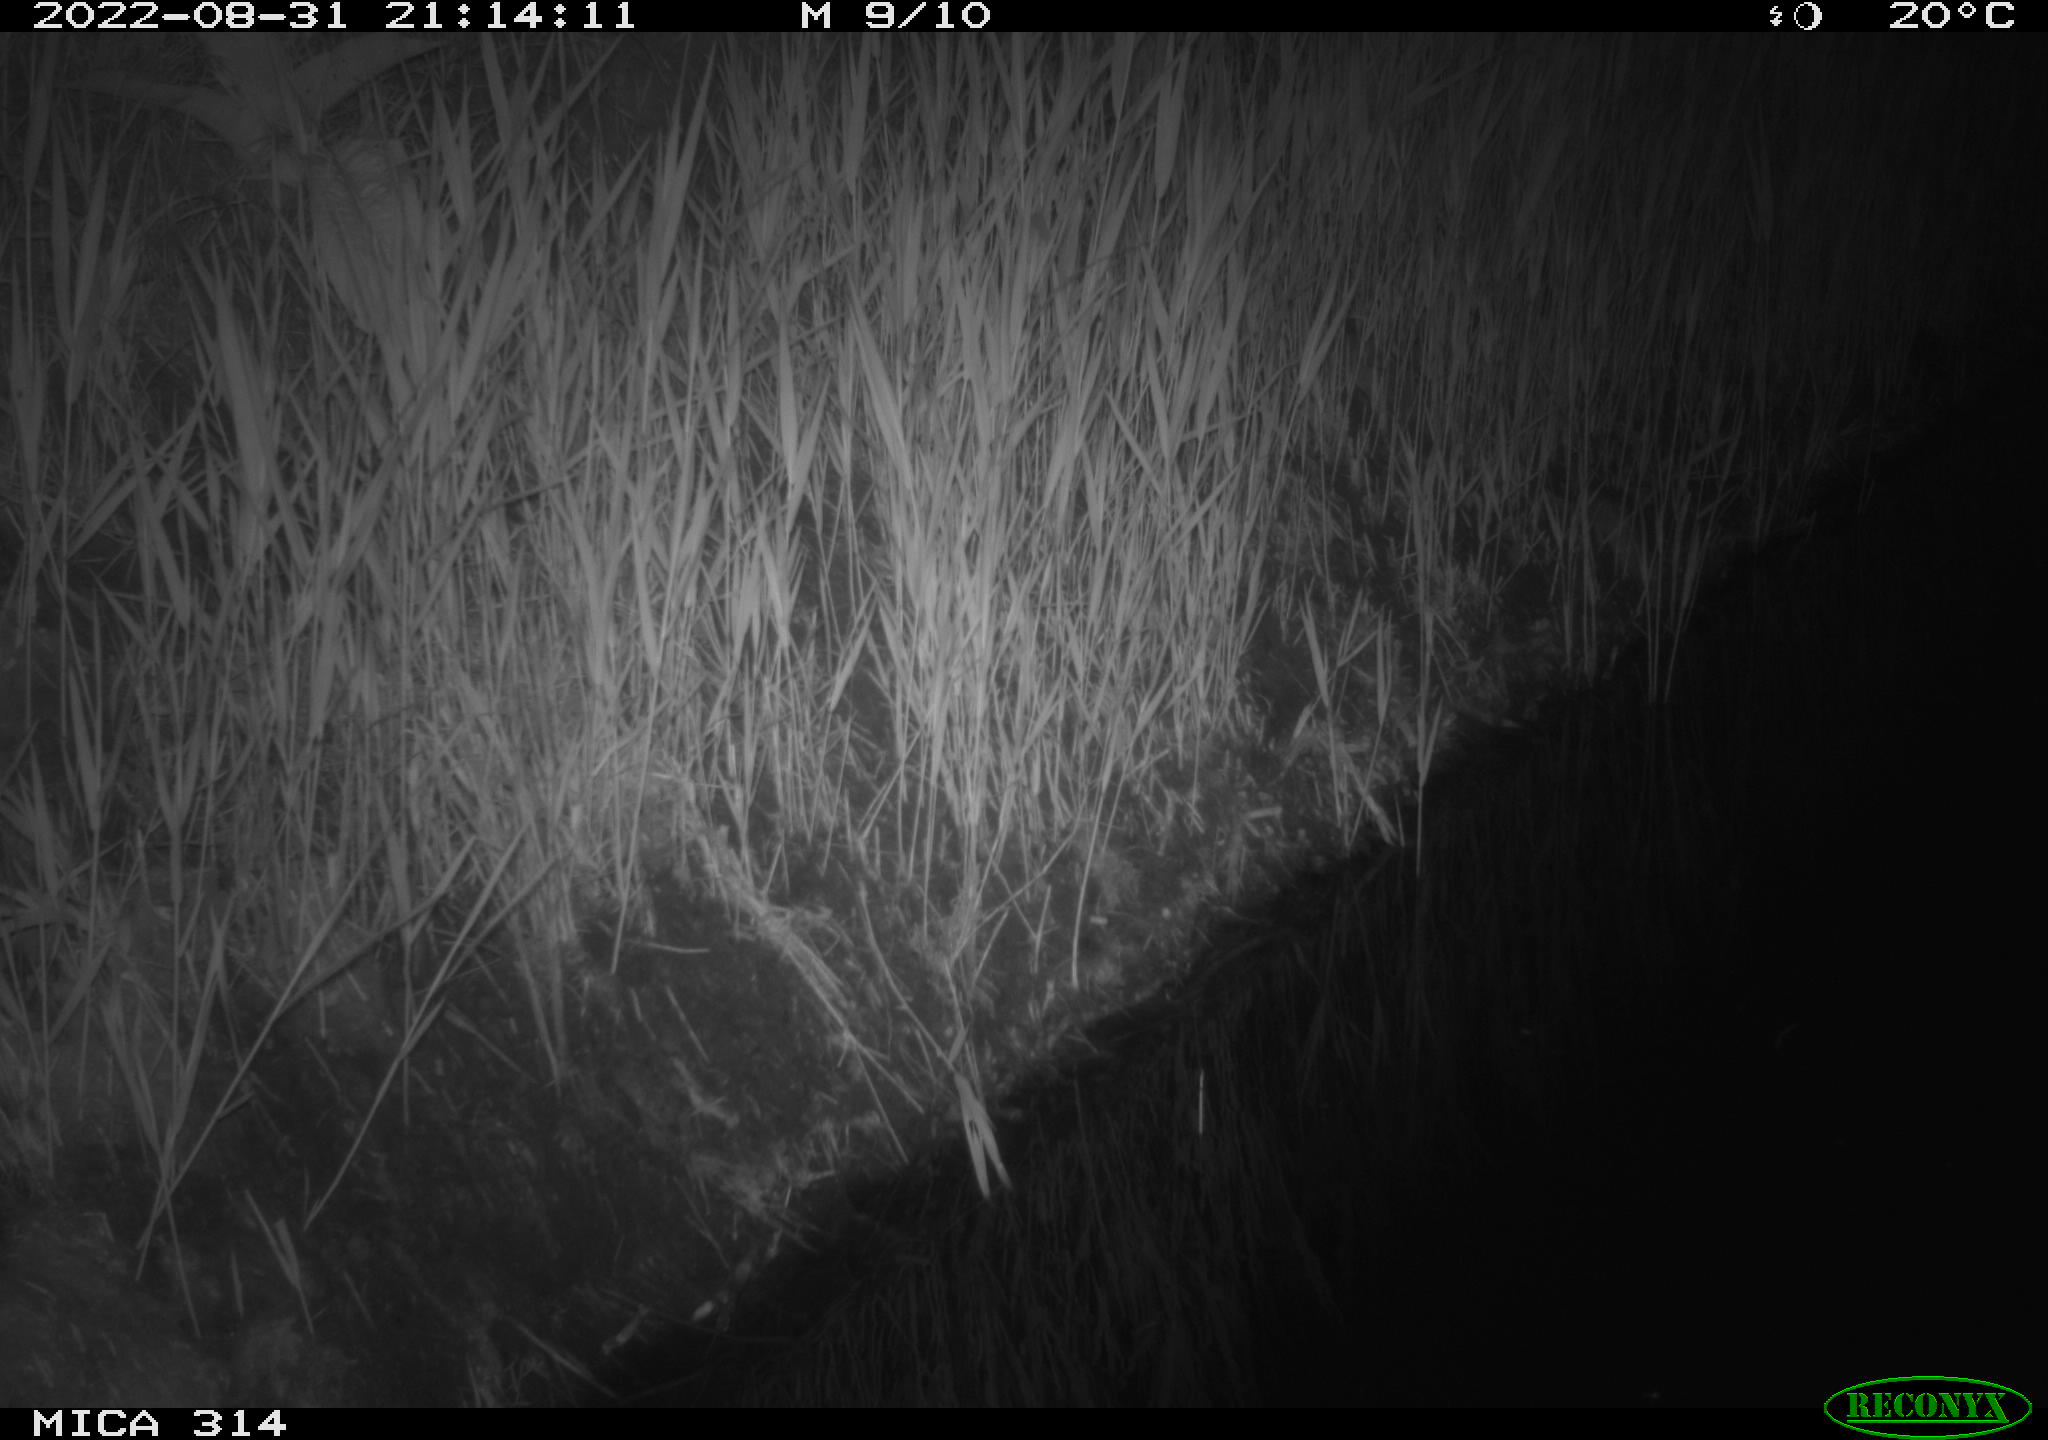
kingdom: Animalia
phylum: Chordata
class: Mammalia
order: Rodentia
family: Muridae
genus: Rattus
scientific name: Rattus norvegicus
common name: Brown rat
